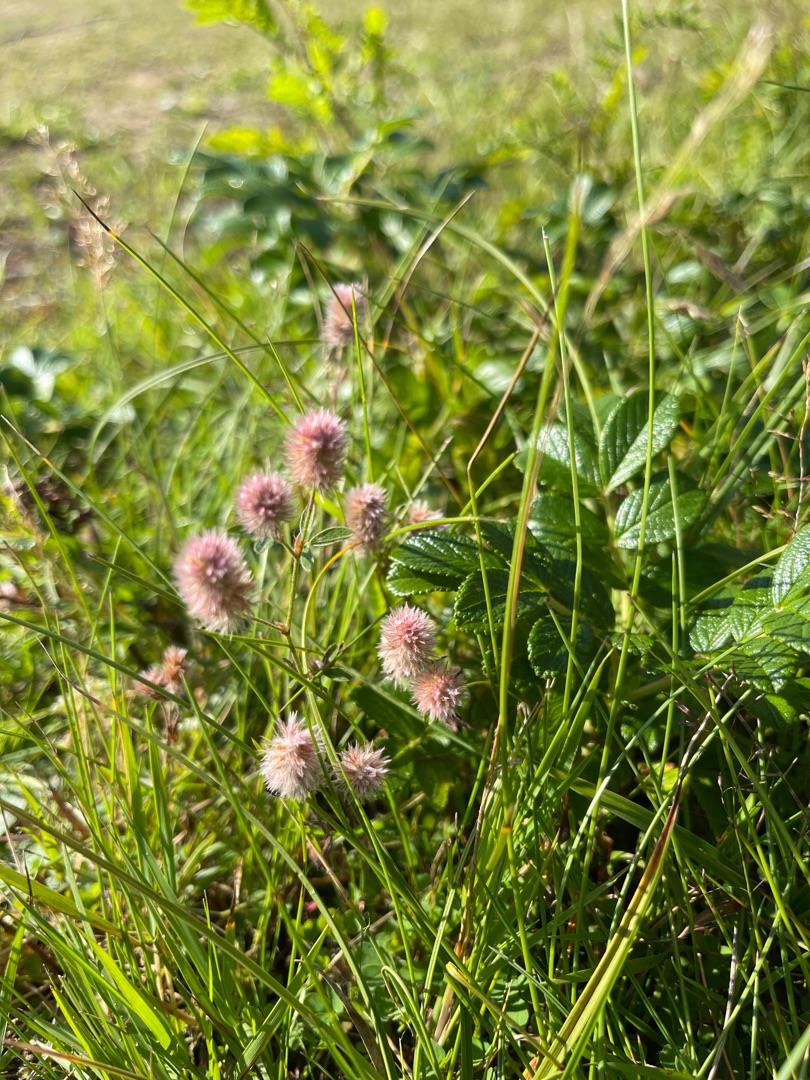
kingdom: Plantae
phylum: Tracheophyta
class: Magnoliopsida
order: Fabales
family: Fabaceae
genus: Trifolium
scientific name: Trifolium arvense
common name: Hare-kløver
